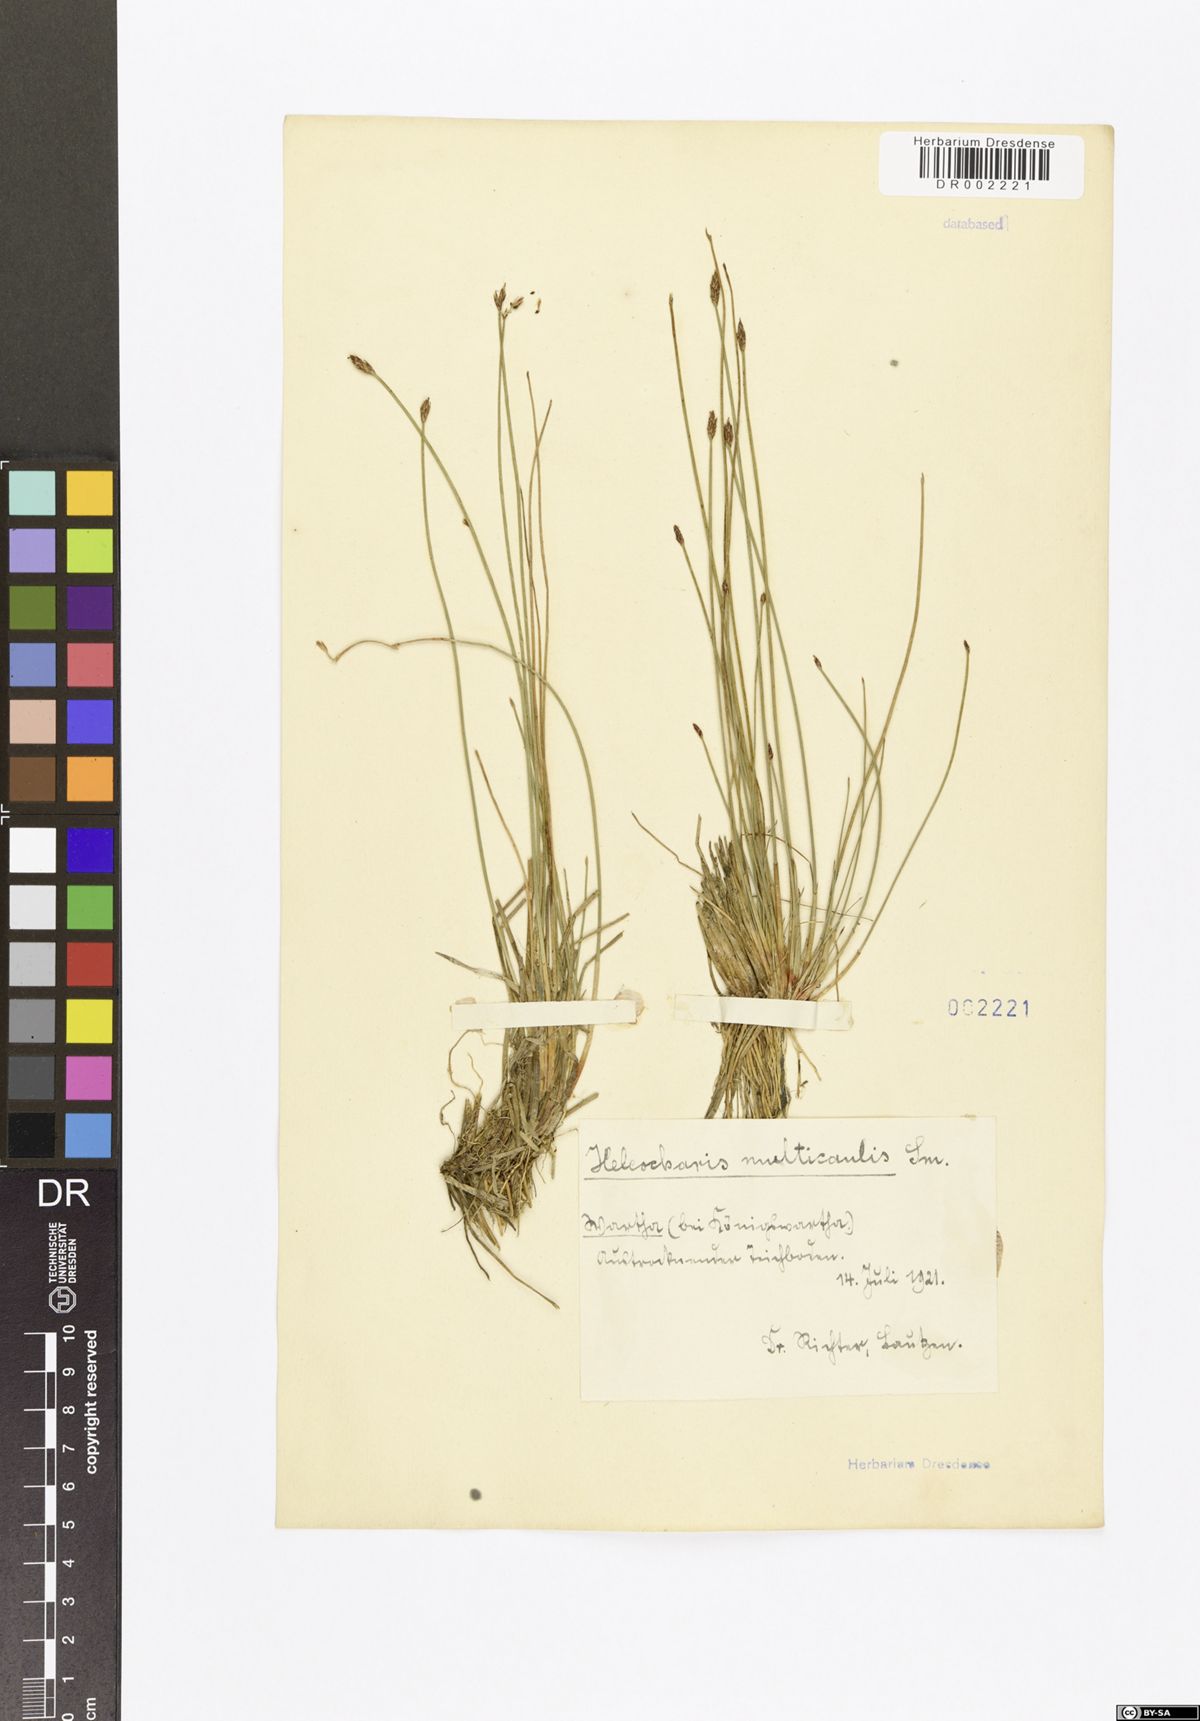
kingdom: Plantae
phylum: Tracheophyta
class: Liliopsida
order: Poales
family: Cyperaceae
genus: Eleocharis
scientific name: Eleocharis multicaulis
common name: Many-stalked spike-rush
